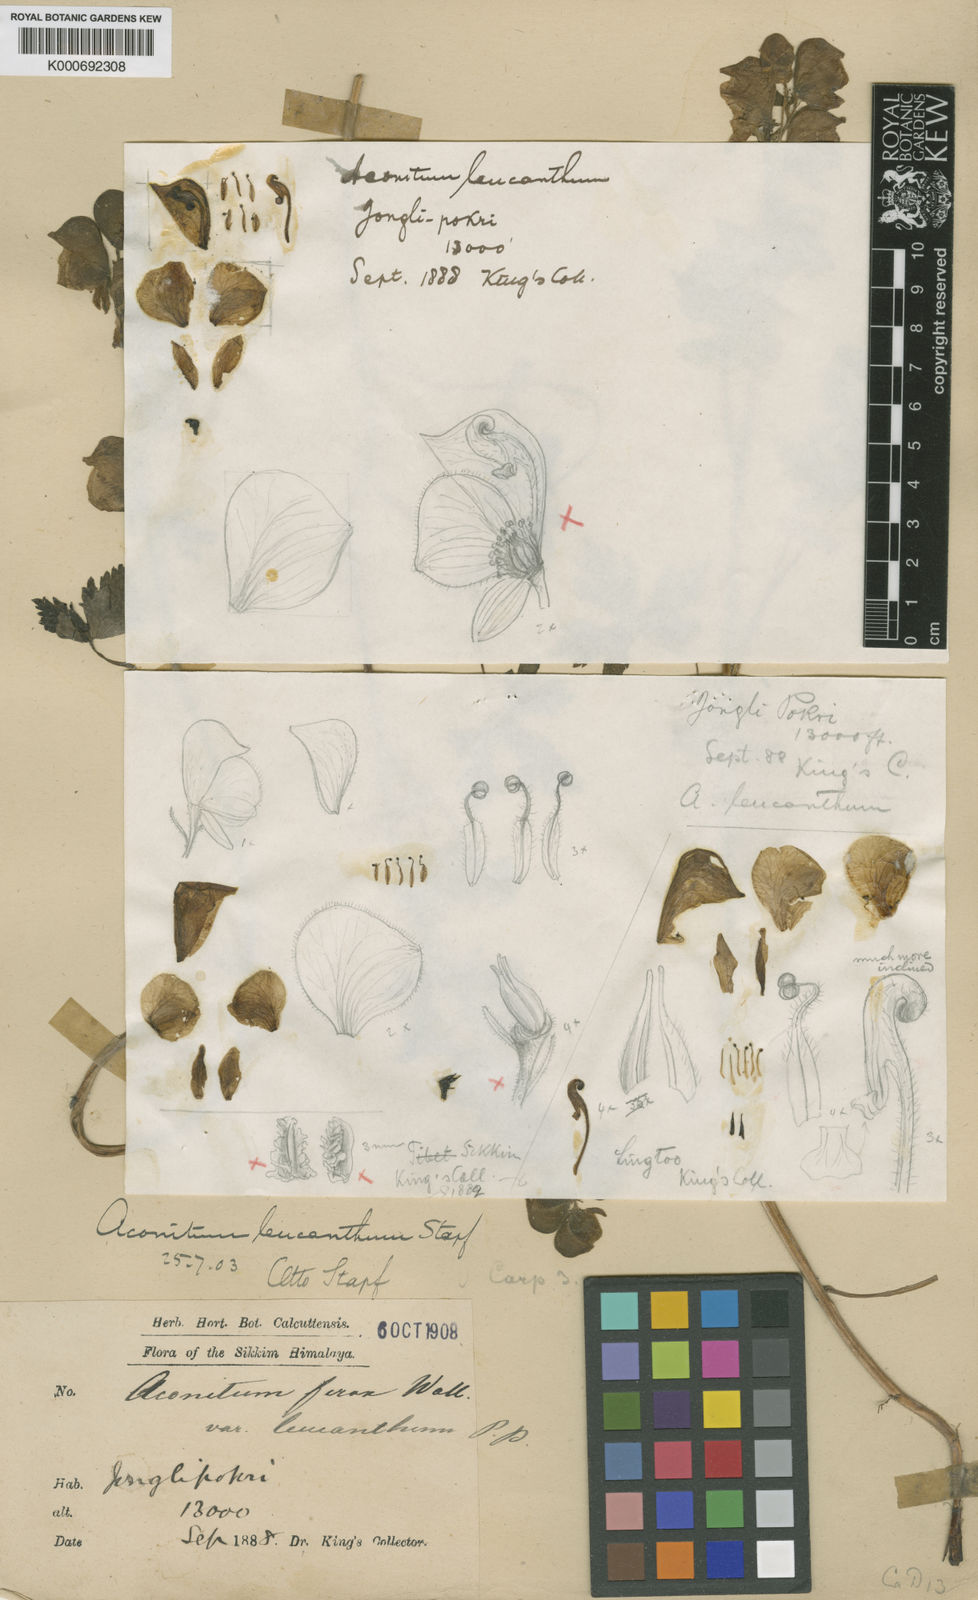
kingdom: Plantae
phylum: Tracheophyta
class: Magnoliopsida
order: Ranunculales
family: Ranunculaceae
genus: Aconitum
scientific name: Aconitum
